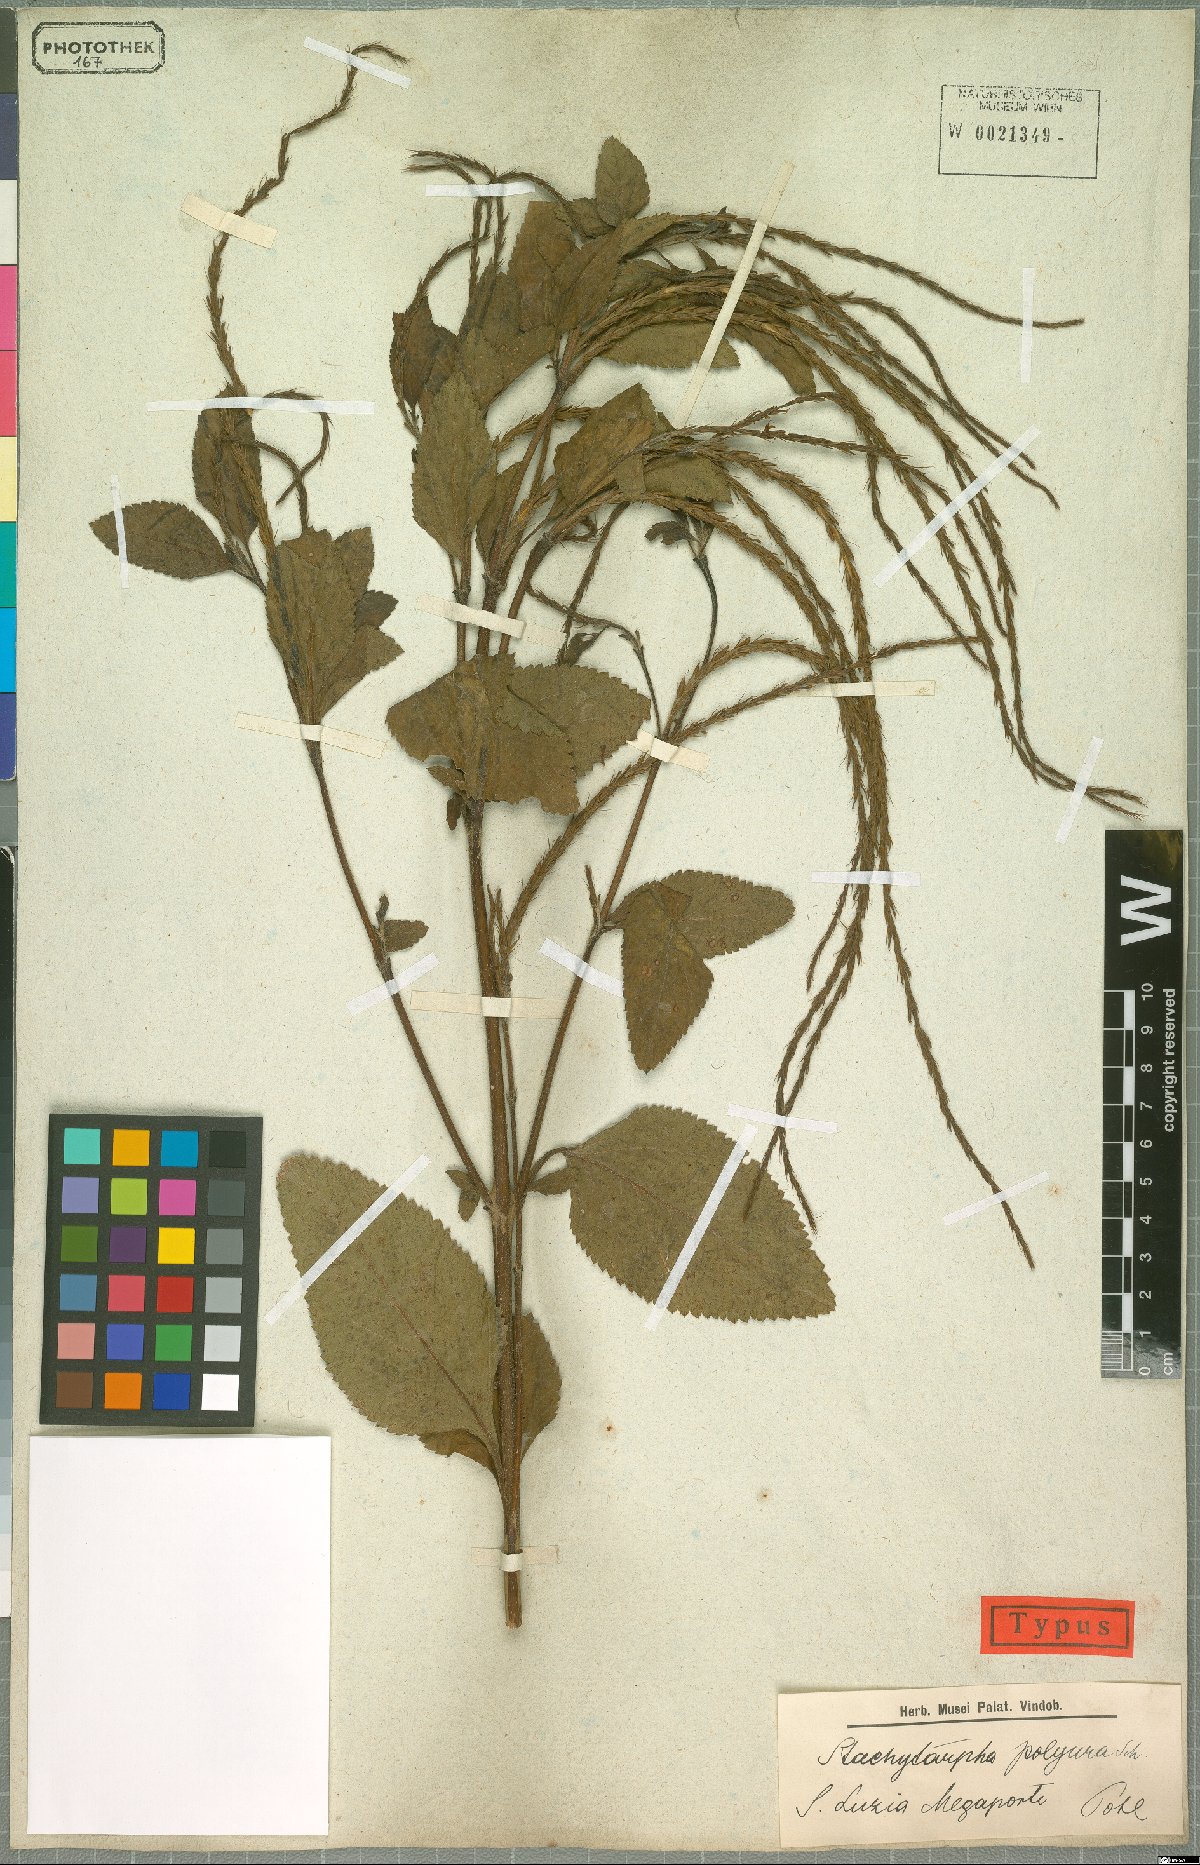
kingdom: Plantae
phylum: Tracheophyta
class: Magnoliopsida
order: Lamiales
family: Verbenaceae
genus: Stachytarpheta
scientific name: Stachytarpheta polyura
